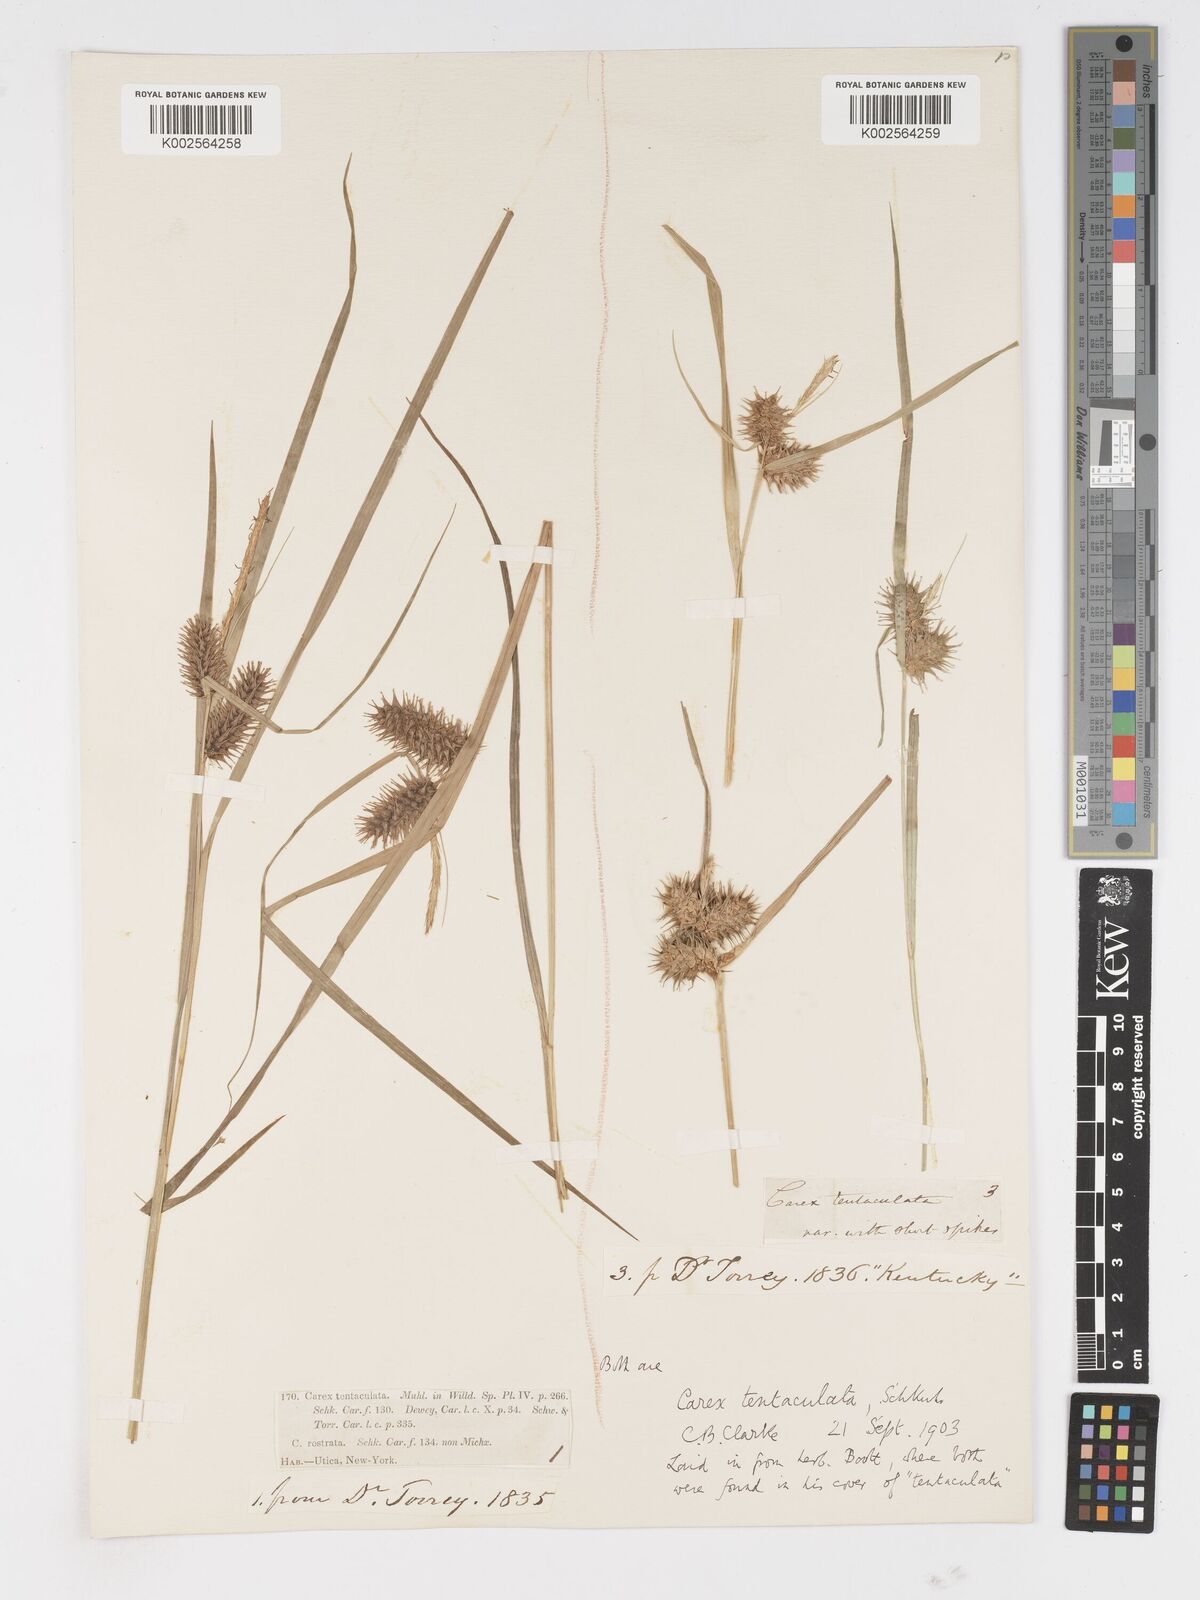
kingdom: Plantae
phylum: Tracheophyta
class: Liliopsida
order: Poales
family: Cyperaceae
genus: Carex
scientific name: Carex lurida
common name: Sallow sedge
